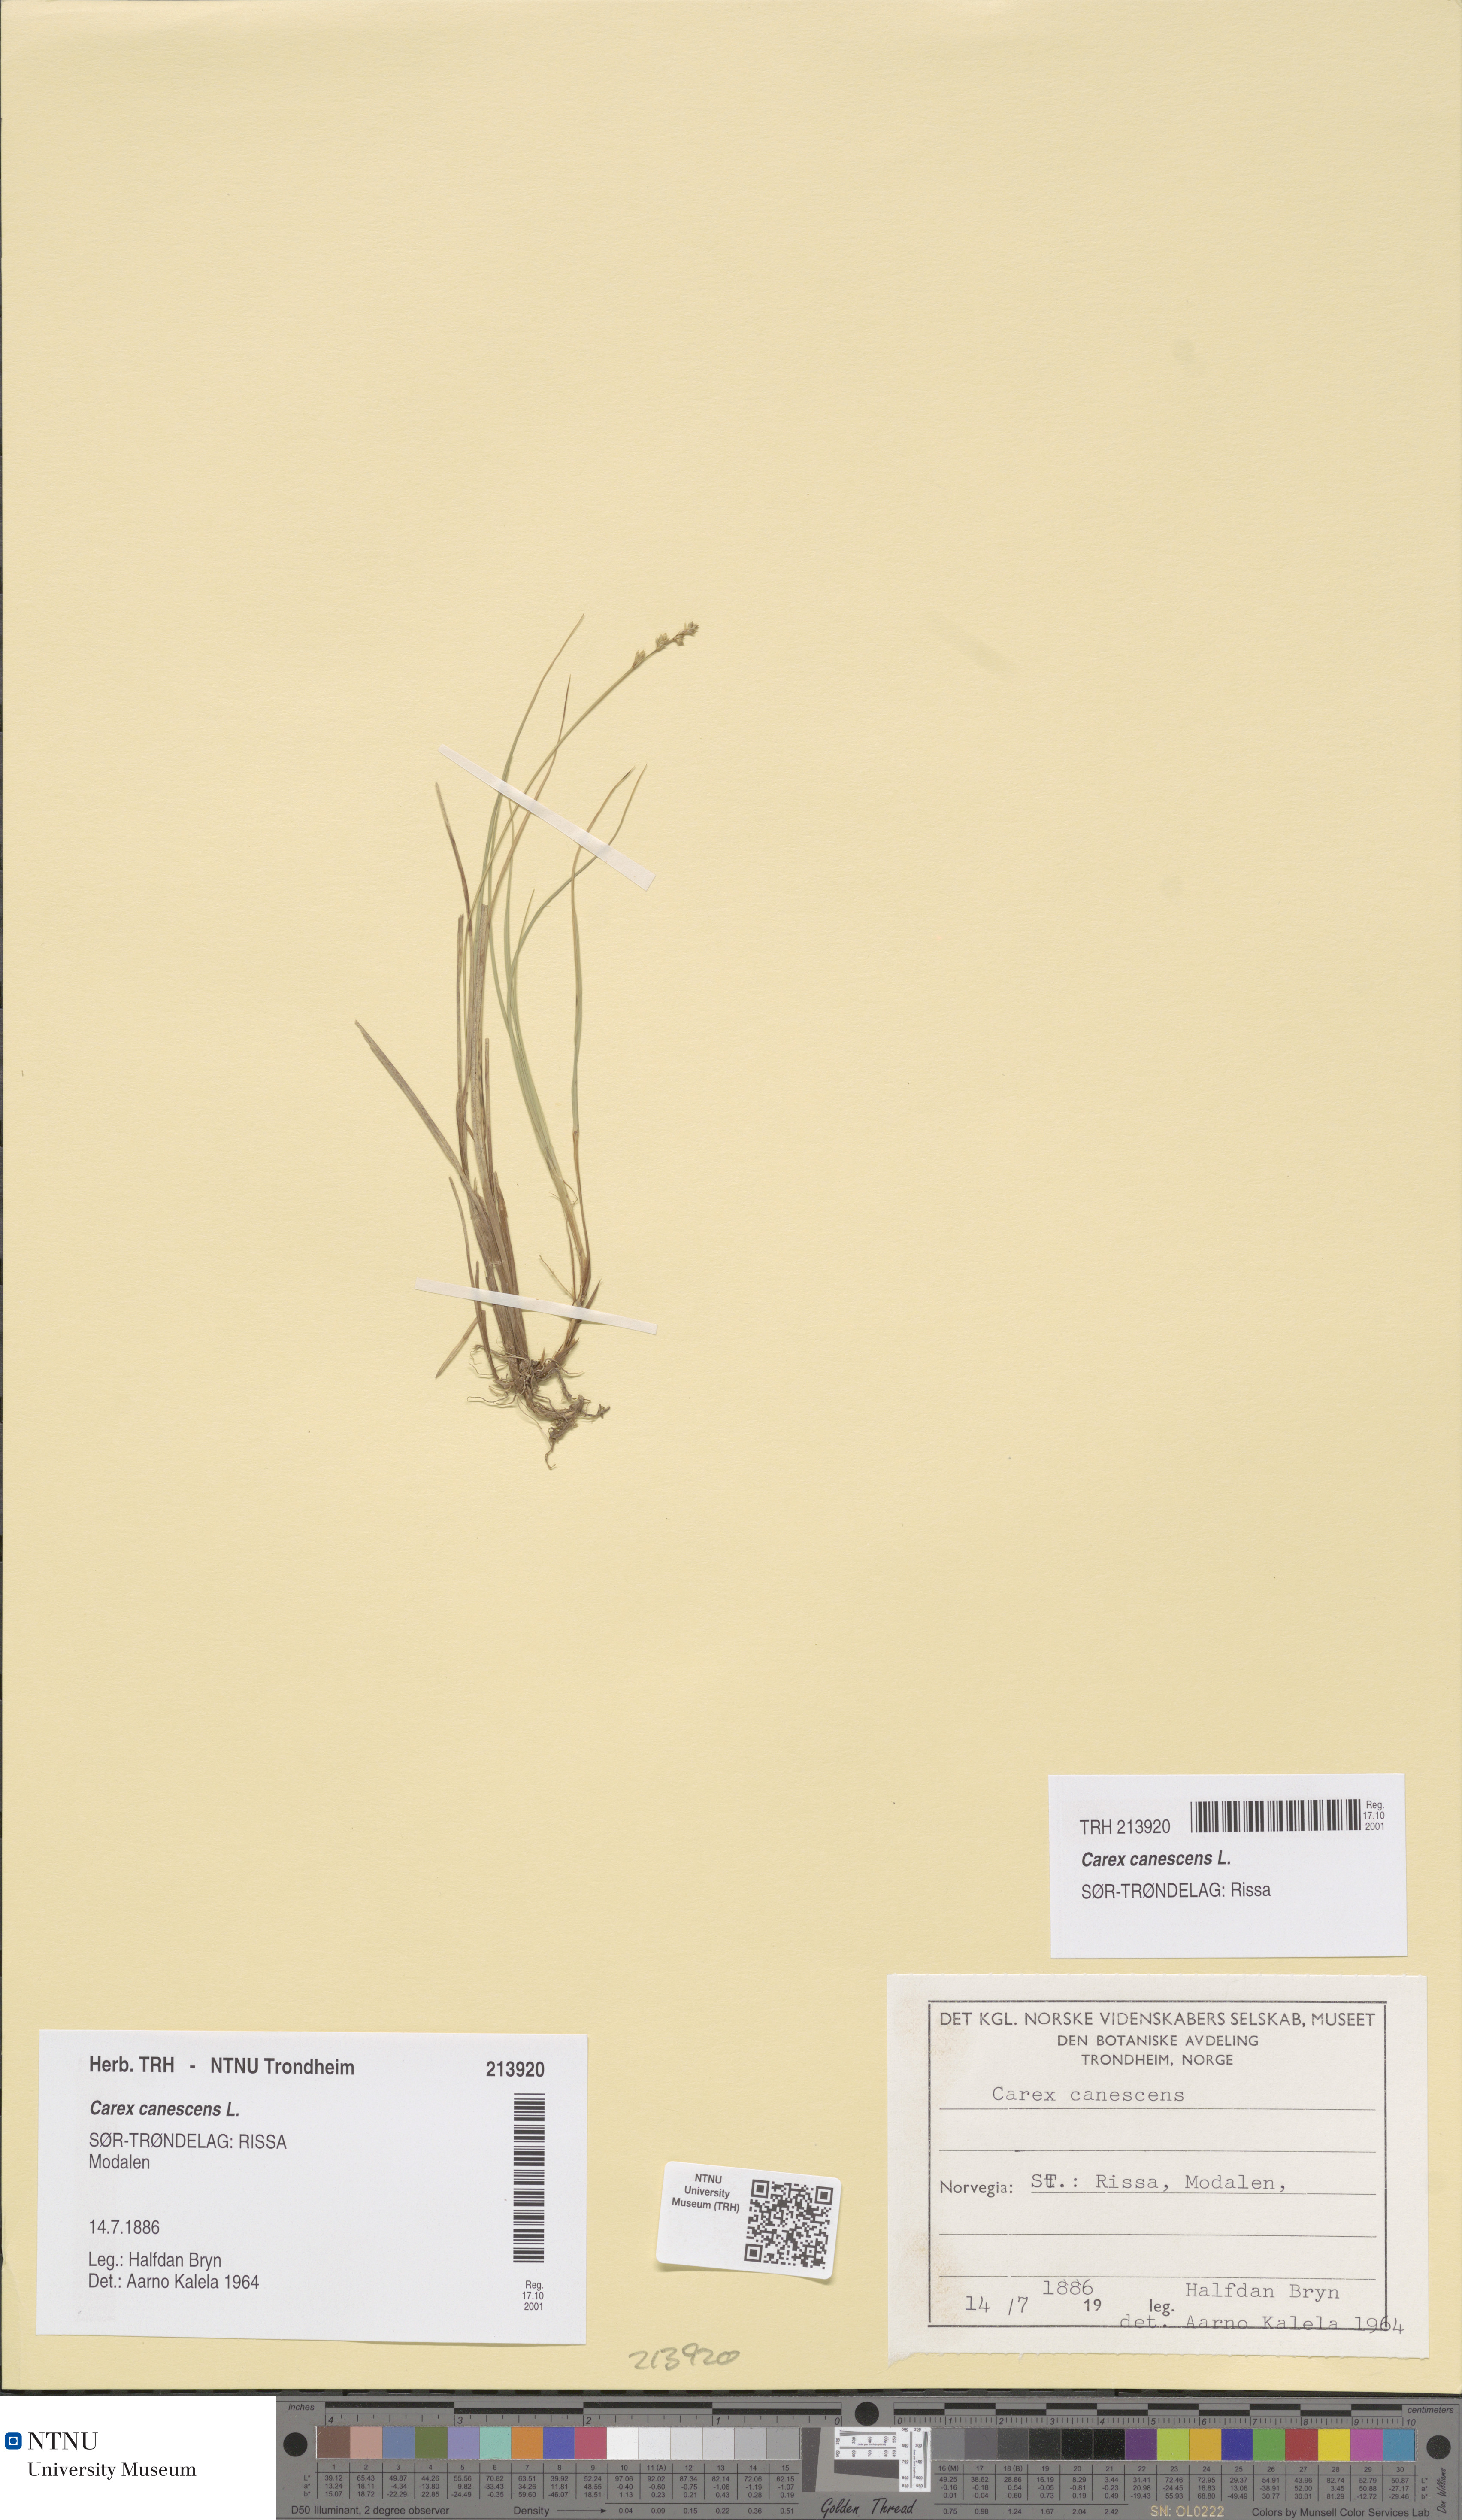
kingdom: Plantae
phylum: Tracheophyta
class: Liliopsida
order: Poales
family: Cyperaceae
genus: Carex
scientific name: Carex canescens
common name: White sedge
